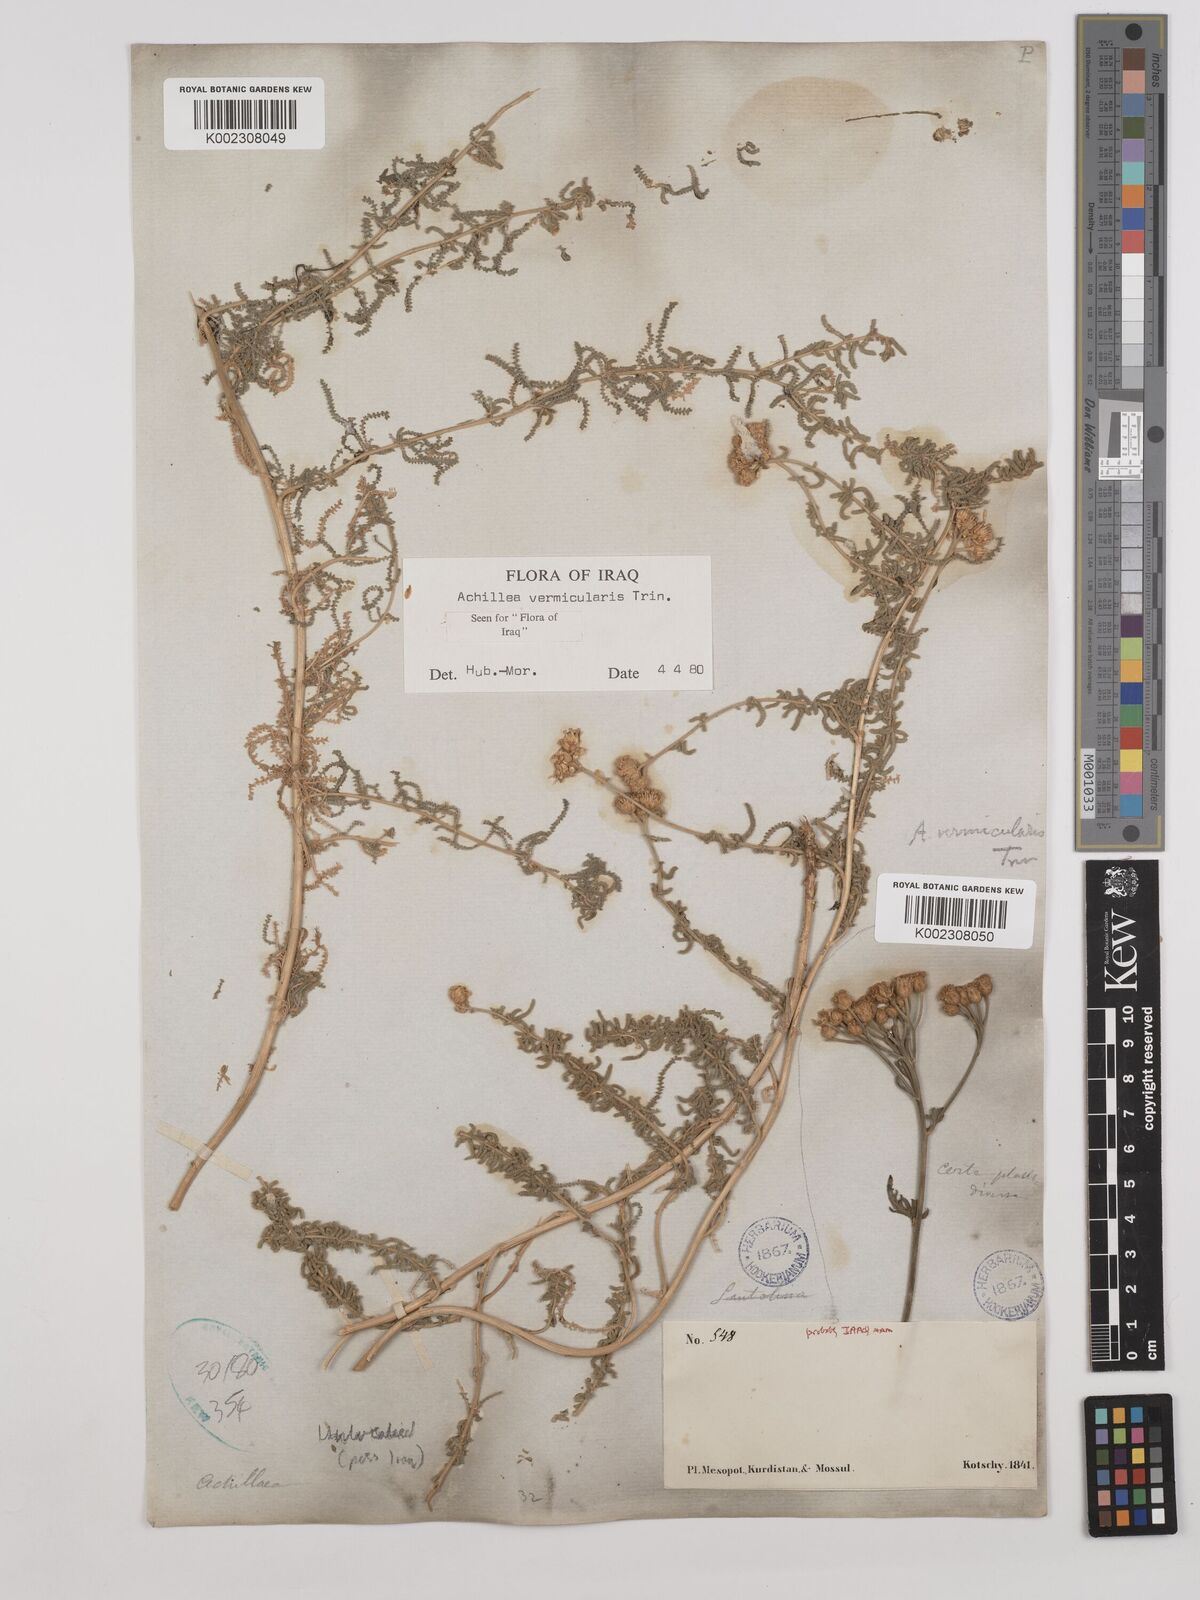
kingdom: Plantae
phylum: Tracheophyta
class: Magnoliopsida
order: Asterales
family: Asteraceae
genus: Achillea
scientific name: Achillea vermicularis
